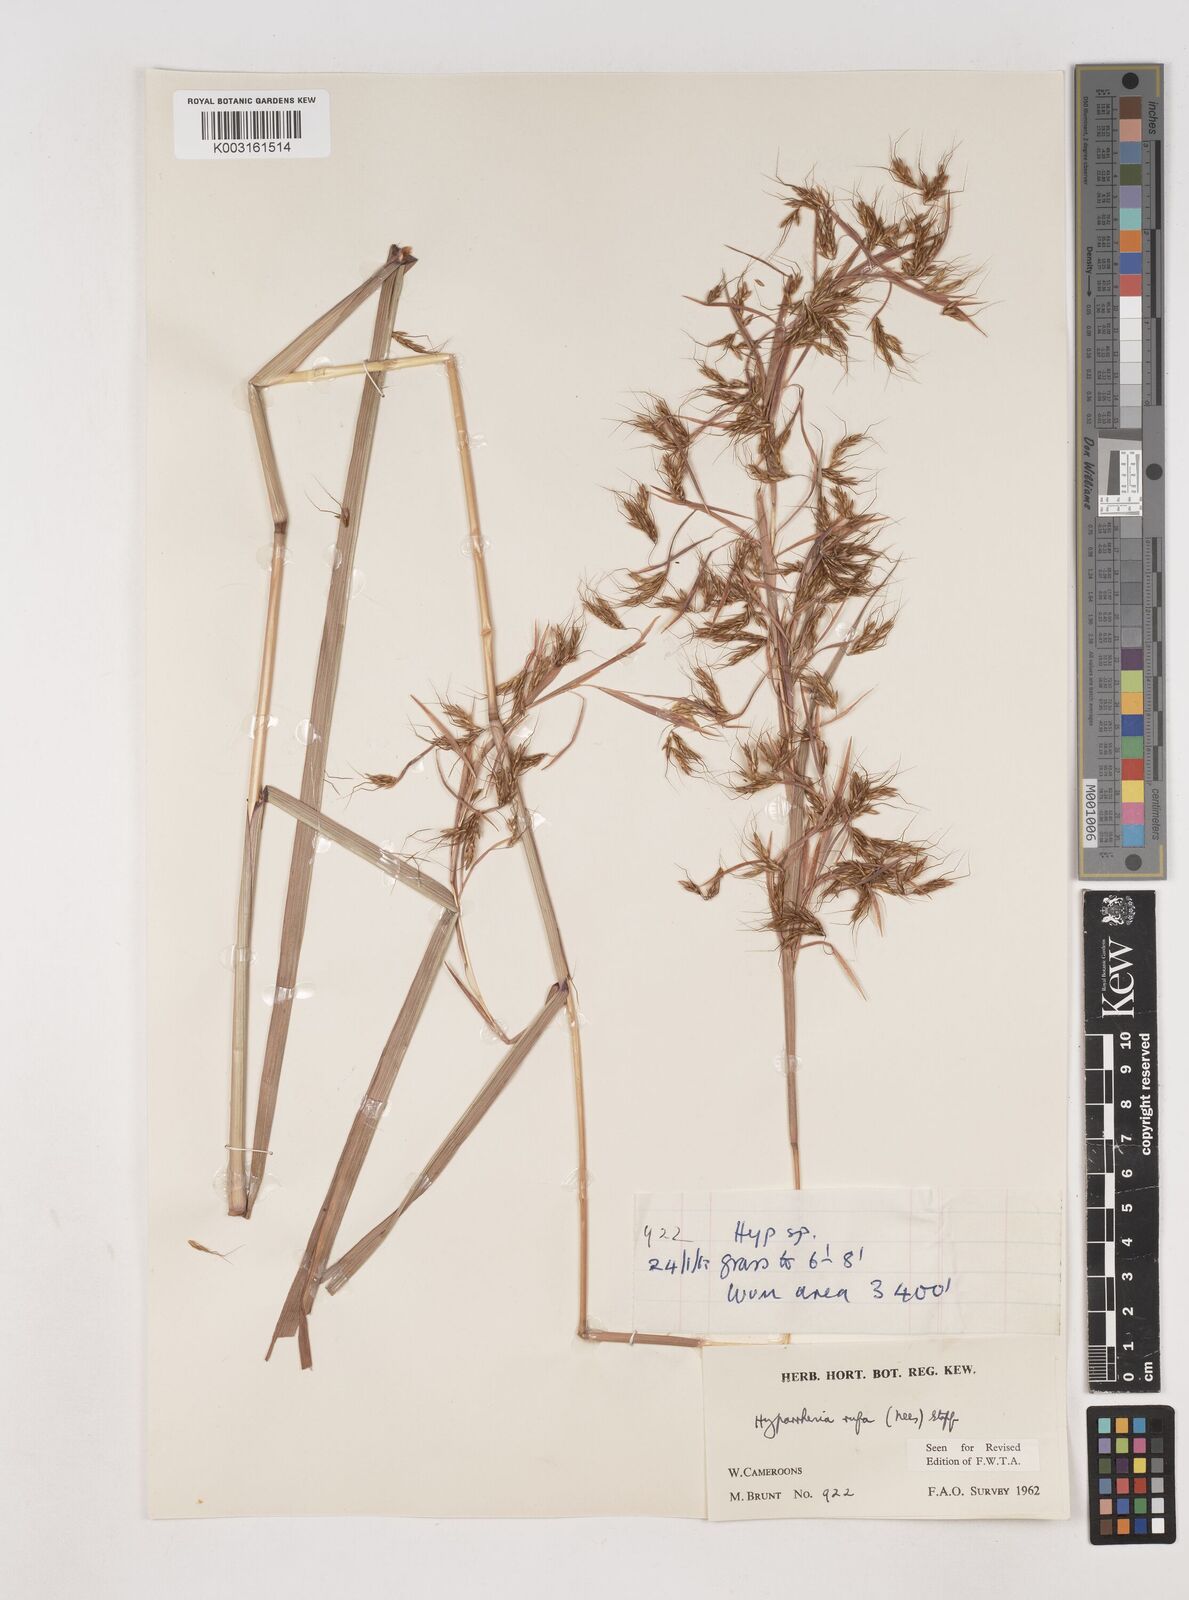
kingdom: Plantae
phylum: Tracheophyta
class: Liliopsida
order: Poales
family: Poaceae
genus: Hyparrhenia
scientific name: Hyparrhenia rufa
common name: Jaraguagrass
